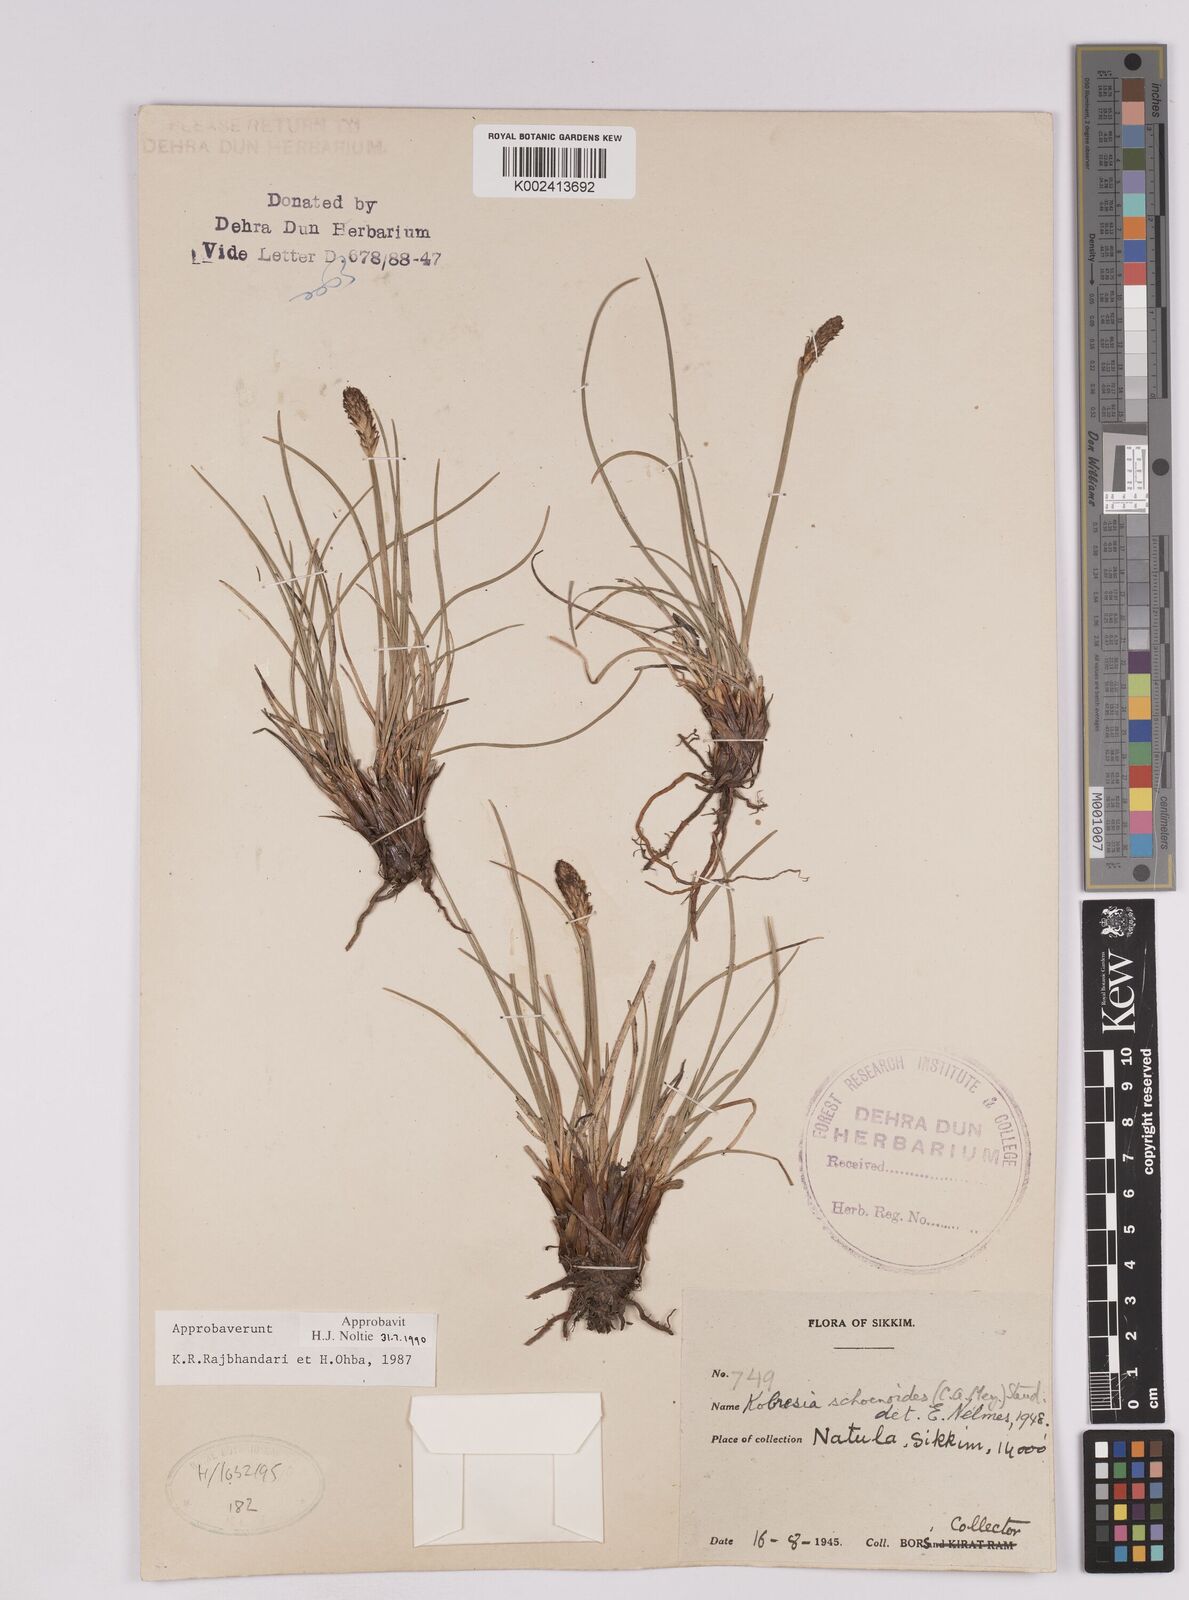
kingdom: Plantae
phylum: Tracheophyta
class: Liliopsida
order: Poales
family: Cyperaceae
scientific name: Cyperaceae
